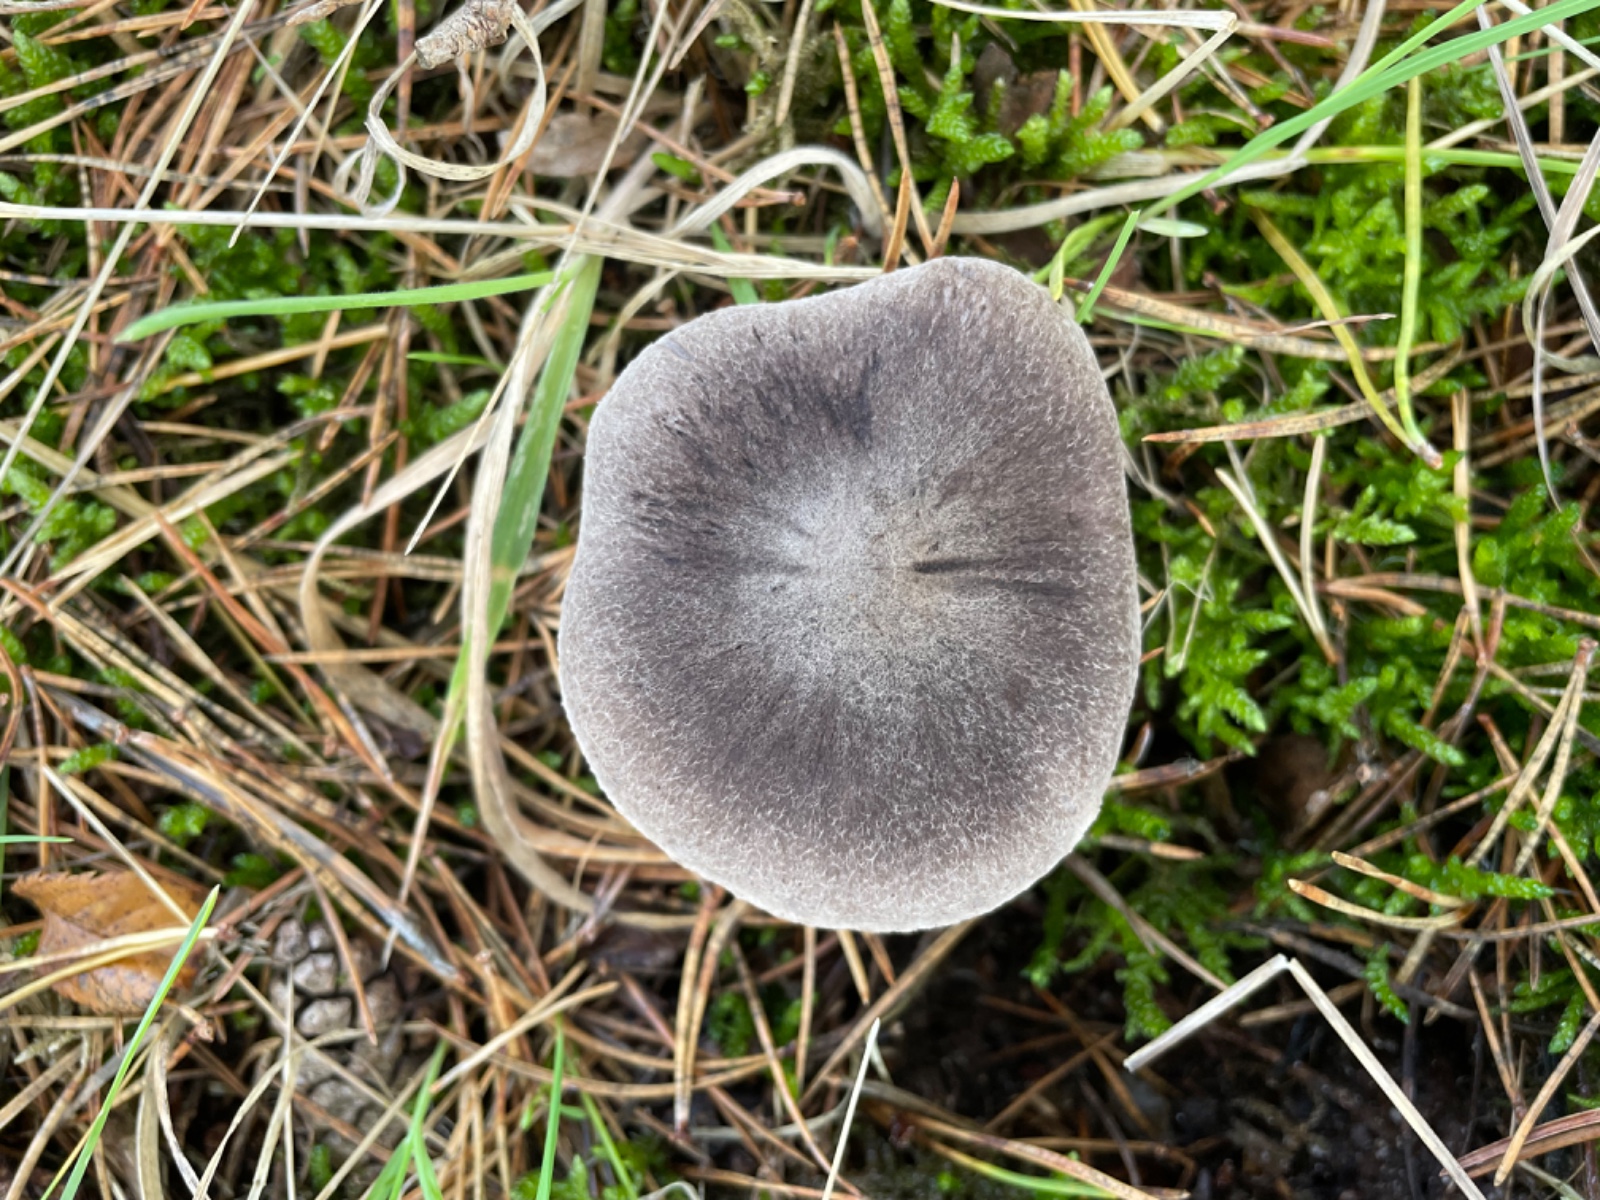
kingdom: Fungi
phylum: Basidiomycota
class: Agaricomycetes
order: Agaricales
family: Tricholomataceae
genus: Tricholoma
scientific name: Tricholoma terreum
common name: jordfarvet ridderhat
